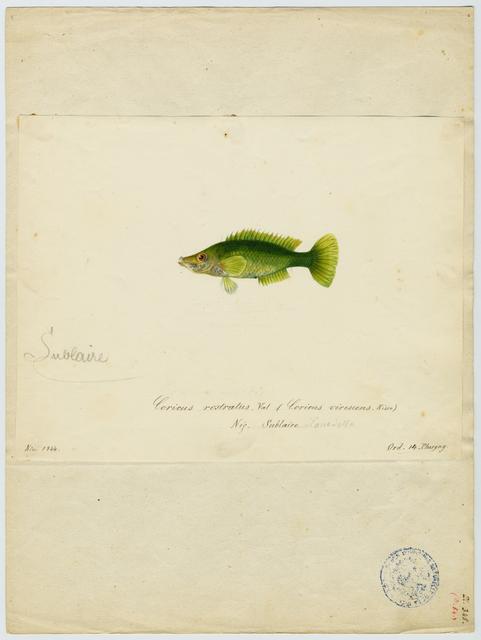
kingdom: Animalia
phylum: Chordata
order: Perciformes
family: Labridae
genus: Symphodus
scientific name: Symphodus rostratus
